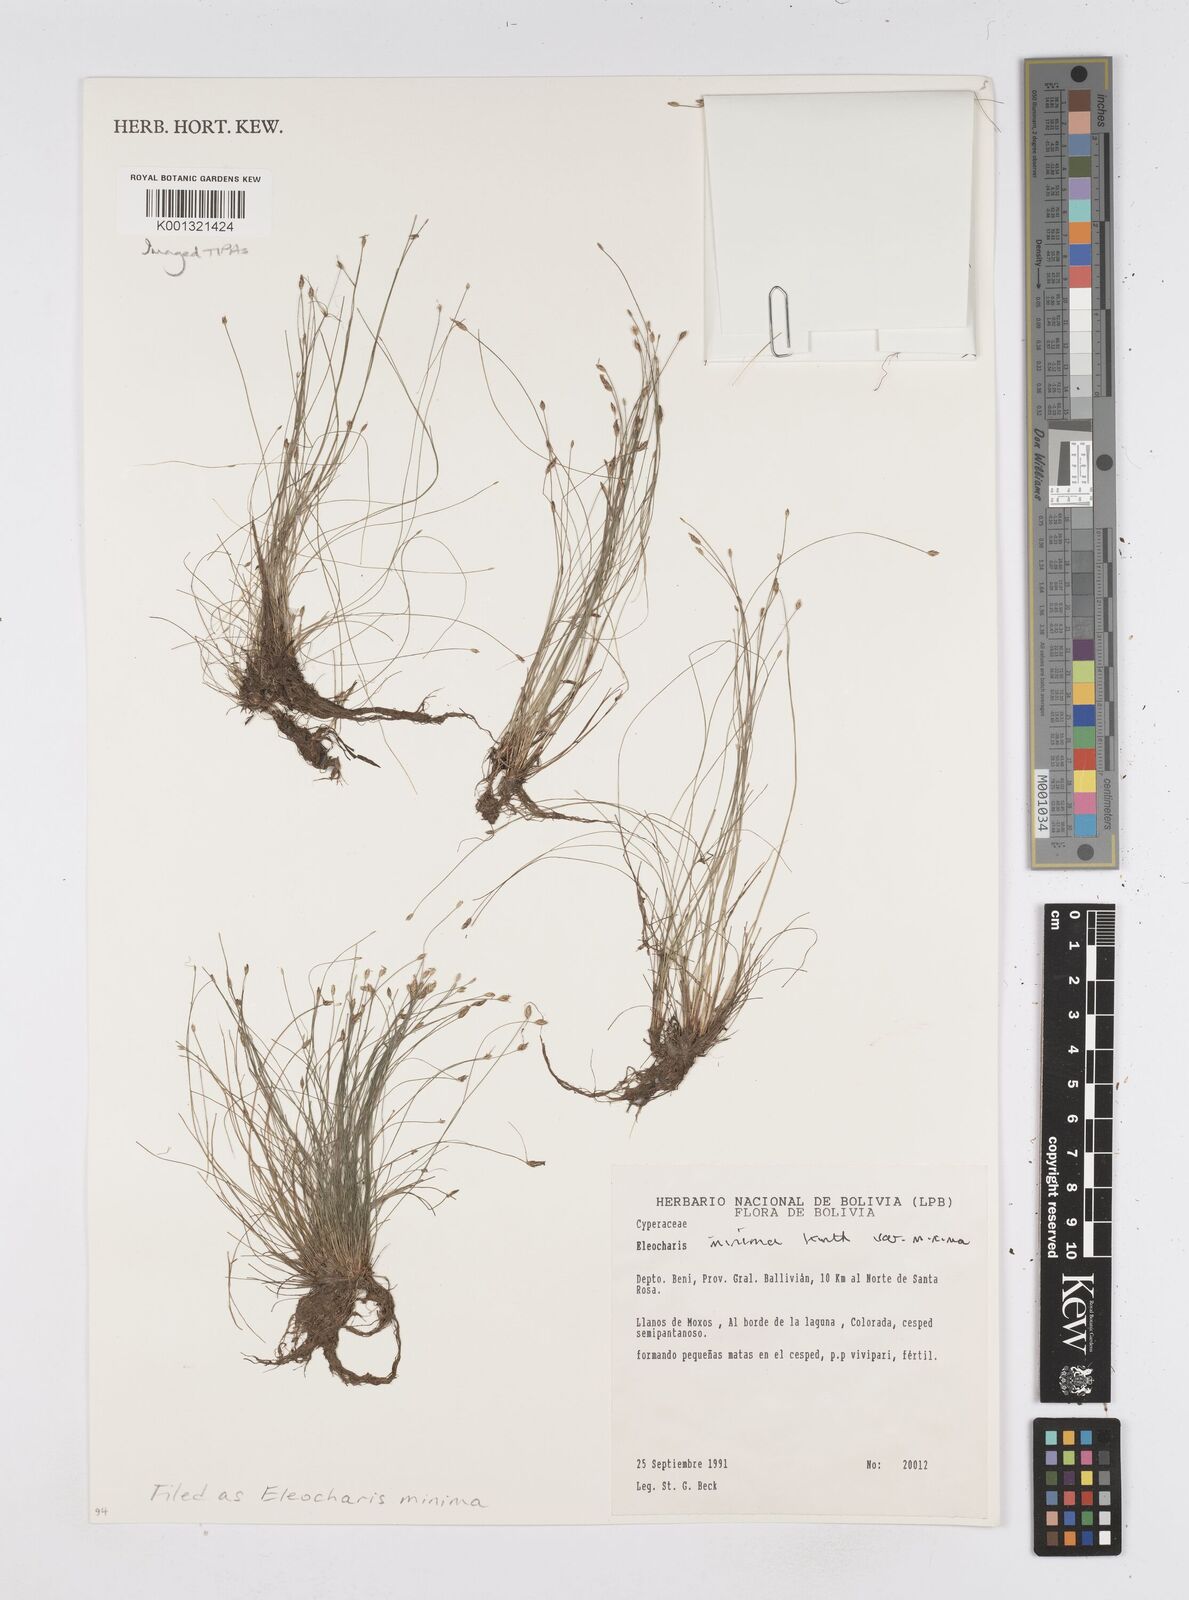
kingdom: Plantae
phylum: Tracheophyta
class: Liliopsida
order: Poales
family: Cyperaceae
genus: Eleocharis
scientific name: Eleocharis minima
